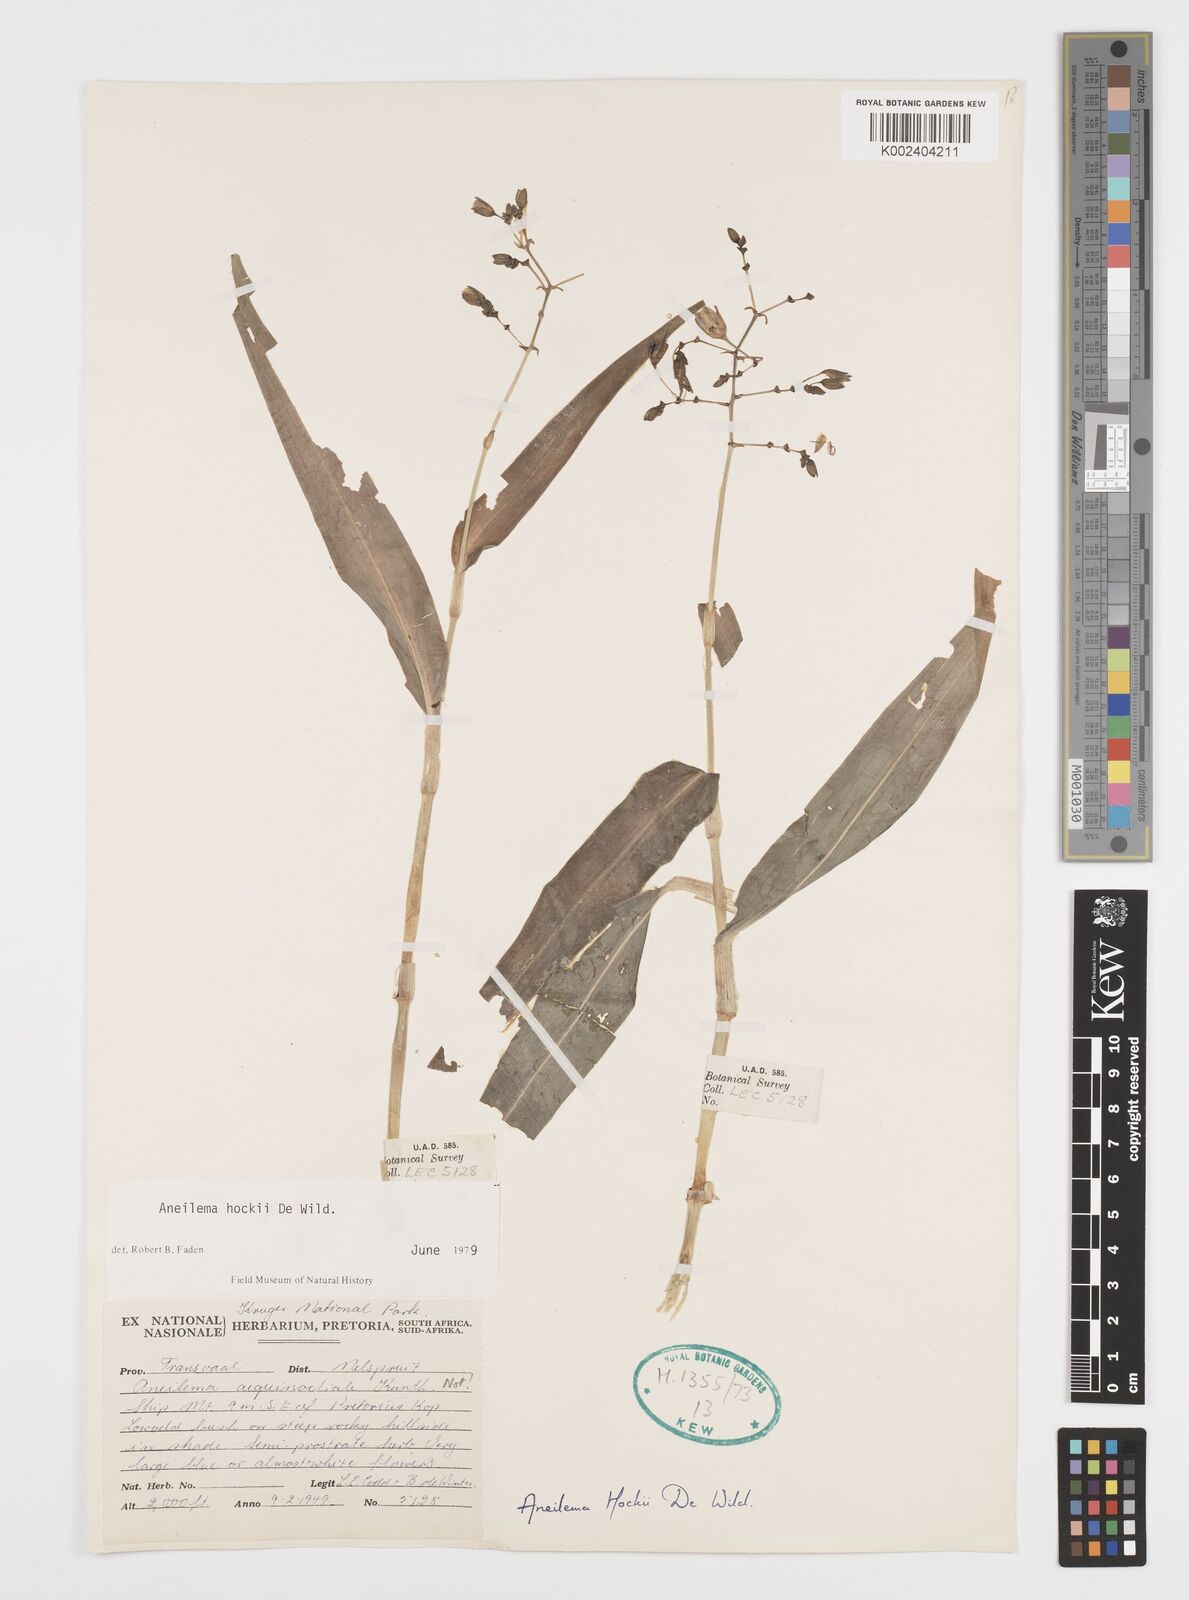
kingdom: Plantae
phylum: Tracheophyta
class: Liliopsida
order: Commelinales
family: Commelinaceae
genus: Aneilema
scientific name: Aneilema hockii
